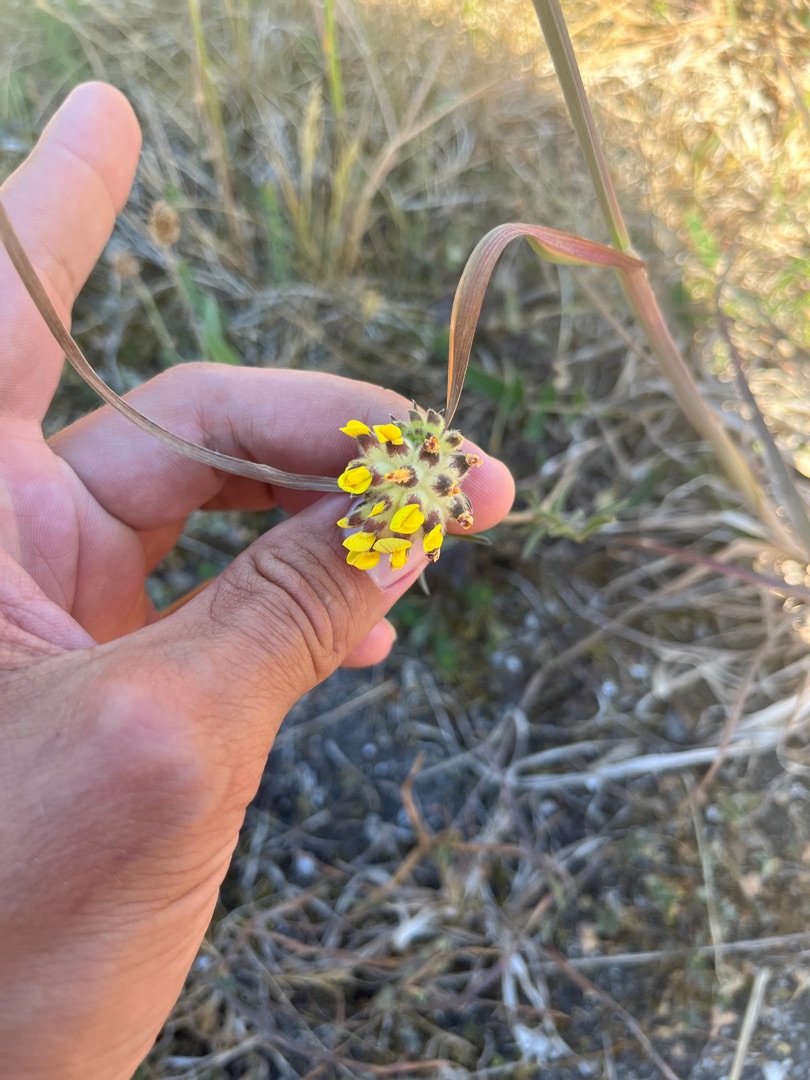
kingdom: Plantae
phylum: Tracheophyta
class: Magnoliopsida
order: Fabales
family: Fabaceae
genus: Anthyllis
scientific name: Anthyllis vulneraria
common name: Rundbælg
